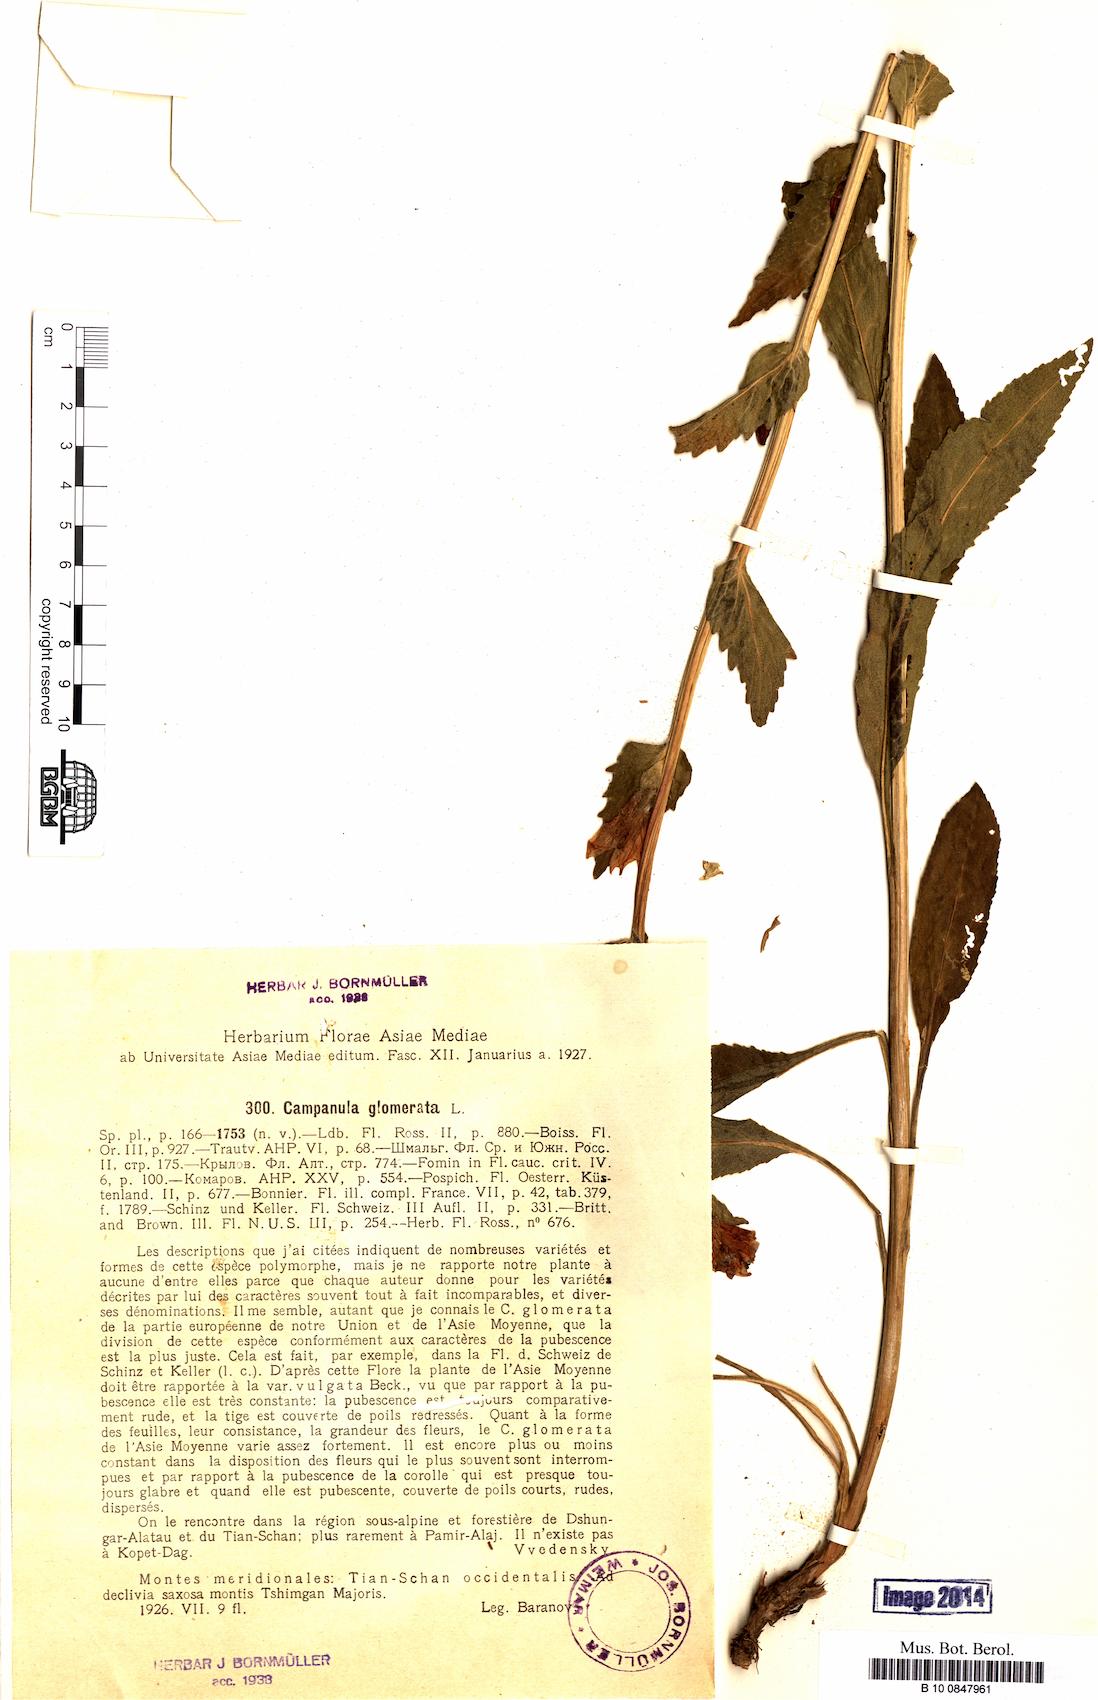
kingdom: Plantae
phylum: Tracheophyta
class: Magnoliopsida
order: Asterales
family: Campanulaceae
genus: Campanula
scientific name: Campanula glomerata
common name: Clustered bellflower
